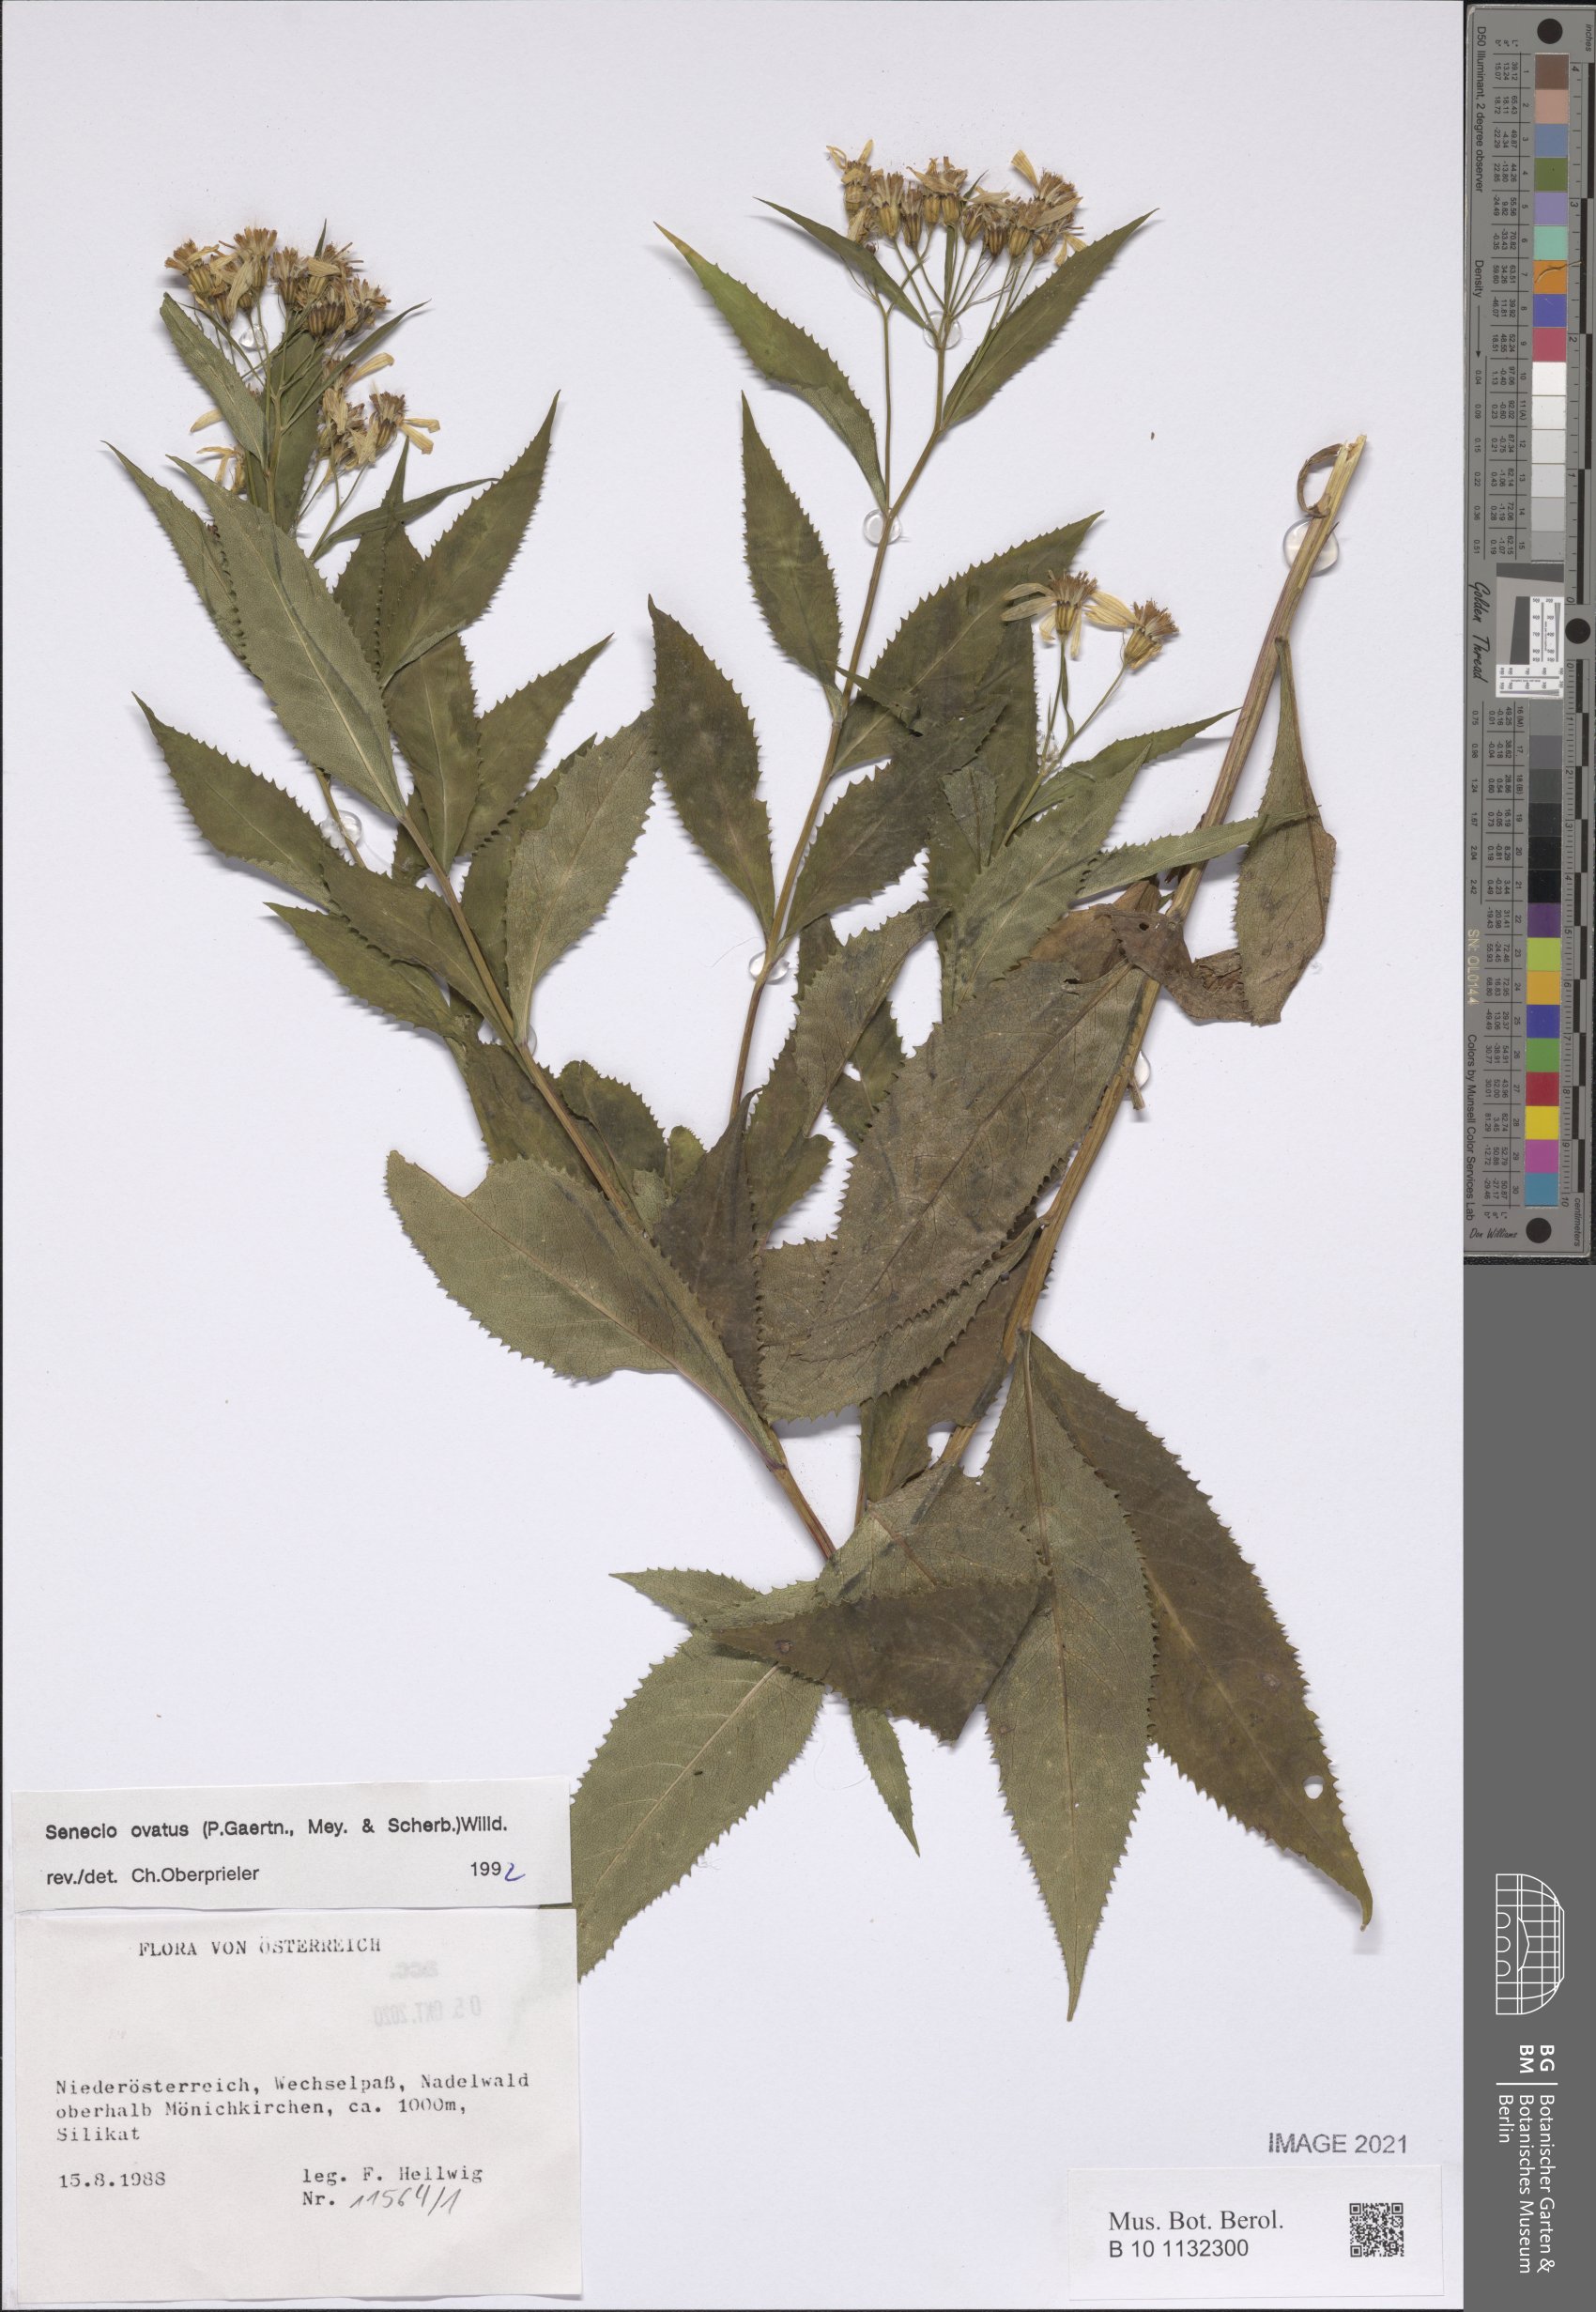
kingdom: Plantae
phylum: Tracheophyta
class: Magnoliopsida
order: Asterales
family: Asteraceae
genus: Senecio
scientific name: Senecio ovatus
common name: Wood ragwort
